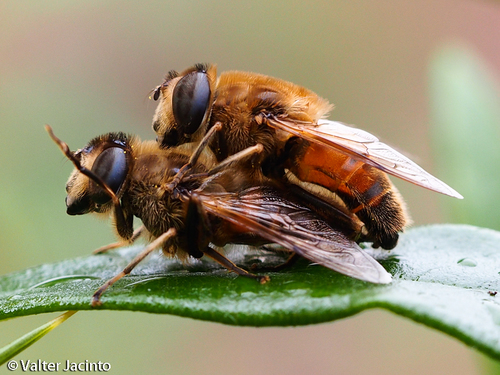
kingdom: Animalia
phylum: Arthropoda
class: Insecta
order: Diptera
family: Syrphidae
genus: Eristalis
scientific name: Eristalis tenax
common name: Drone fly
